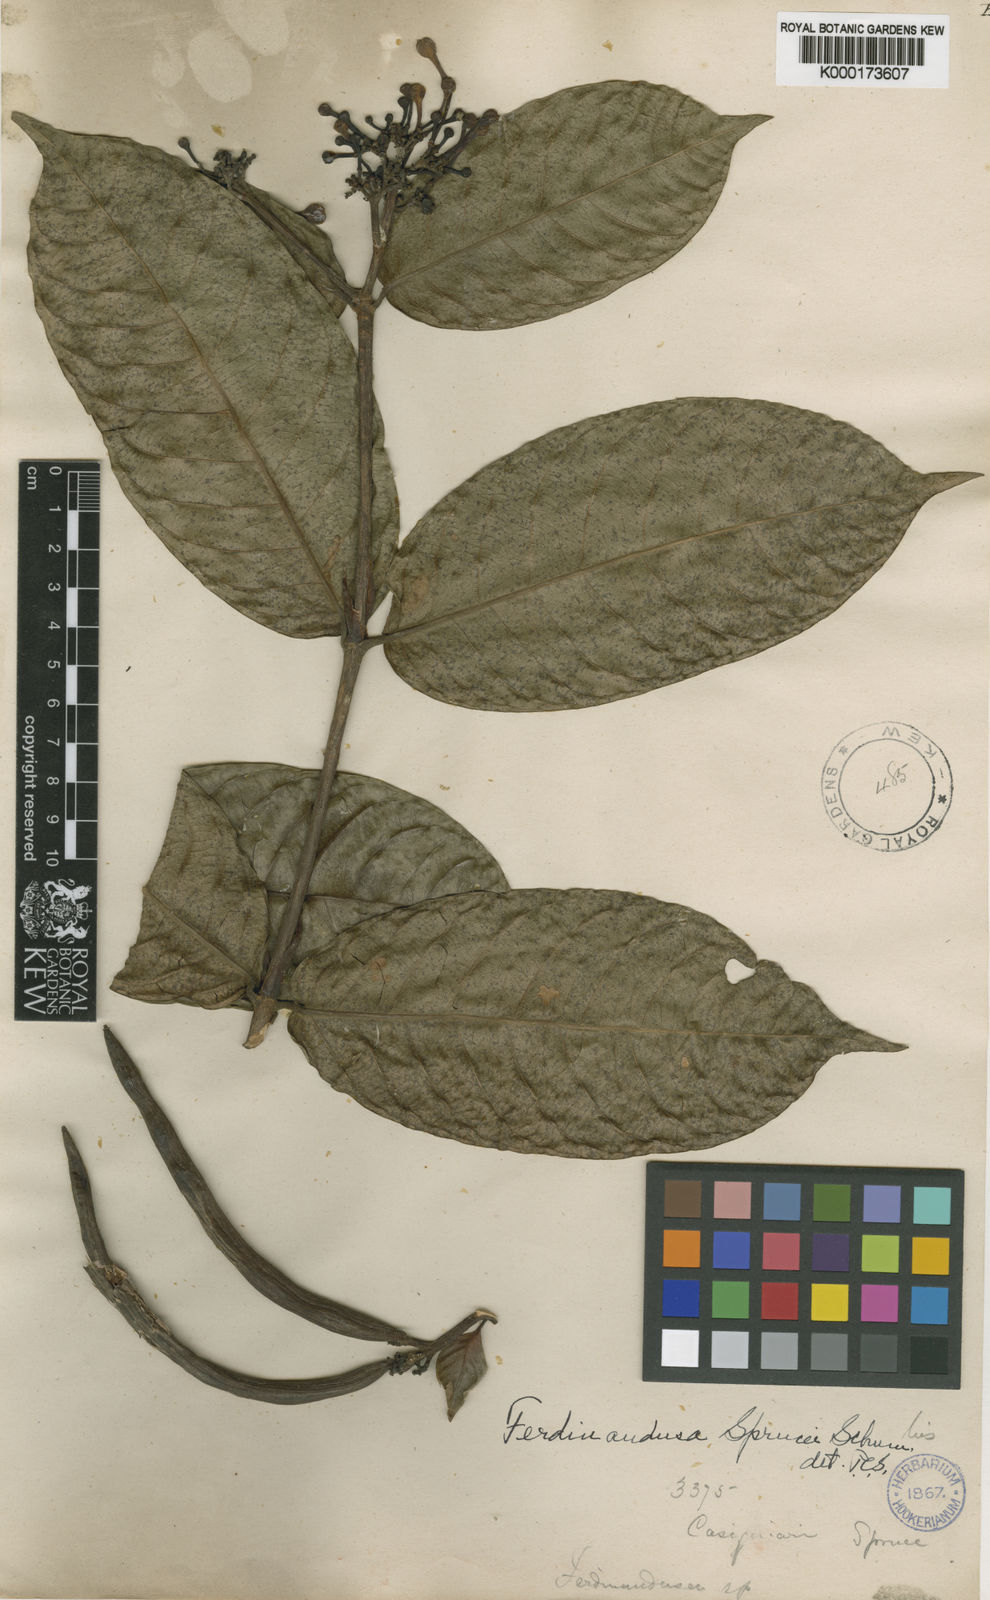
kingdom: Plantae
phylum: Tracheophyta
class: Magnoliopsida
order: Gentianales
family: Rubiaceae
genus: Ferdinandusa
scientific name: Ferdinandusa sprucei
